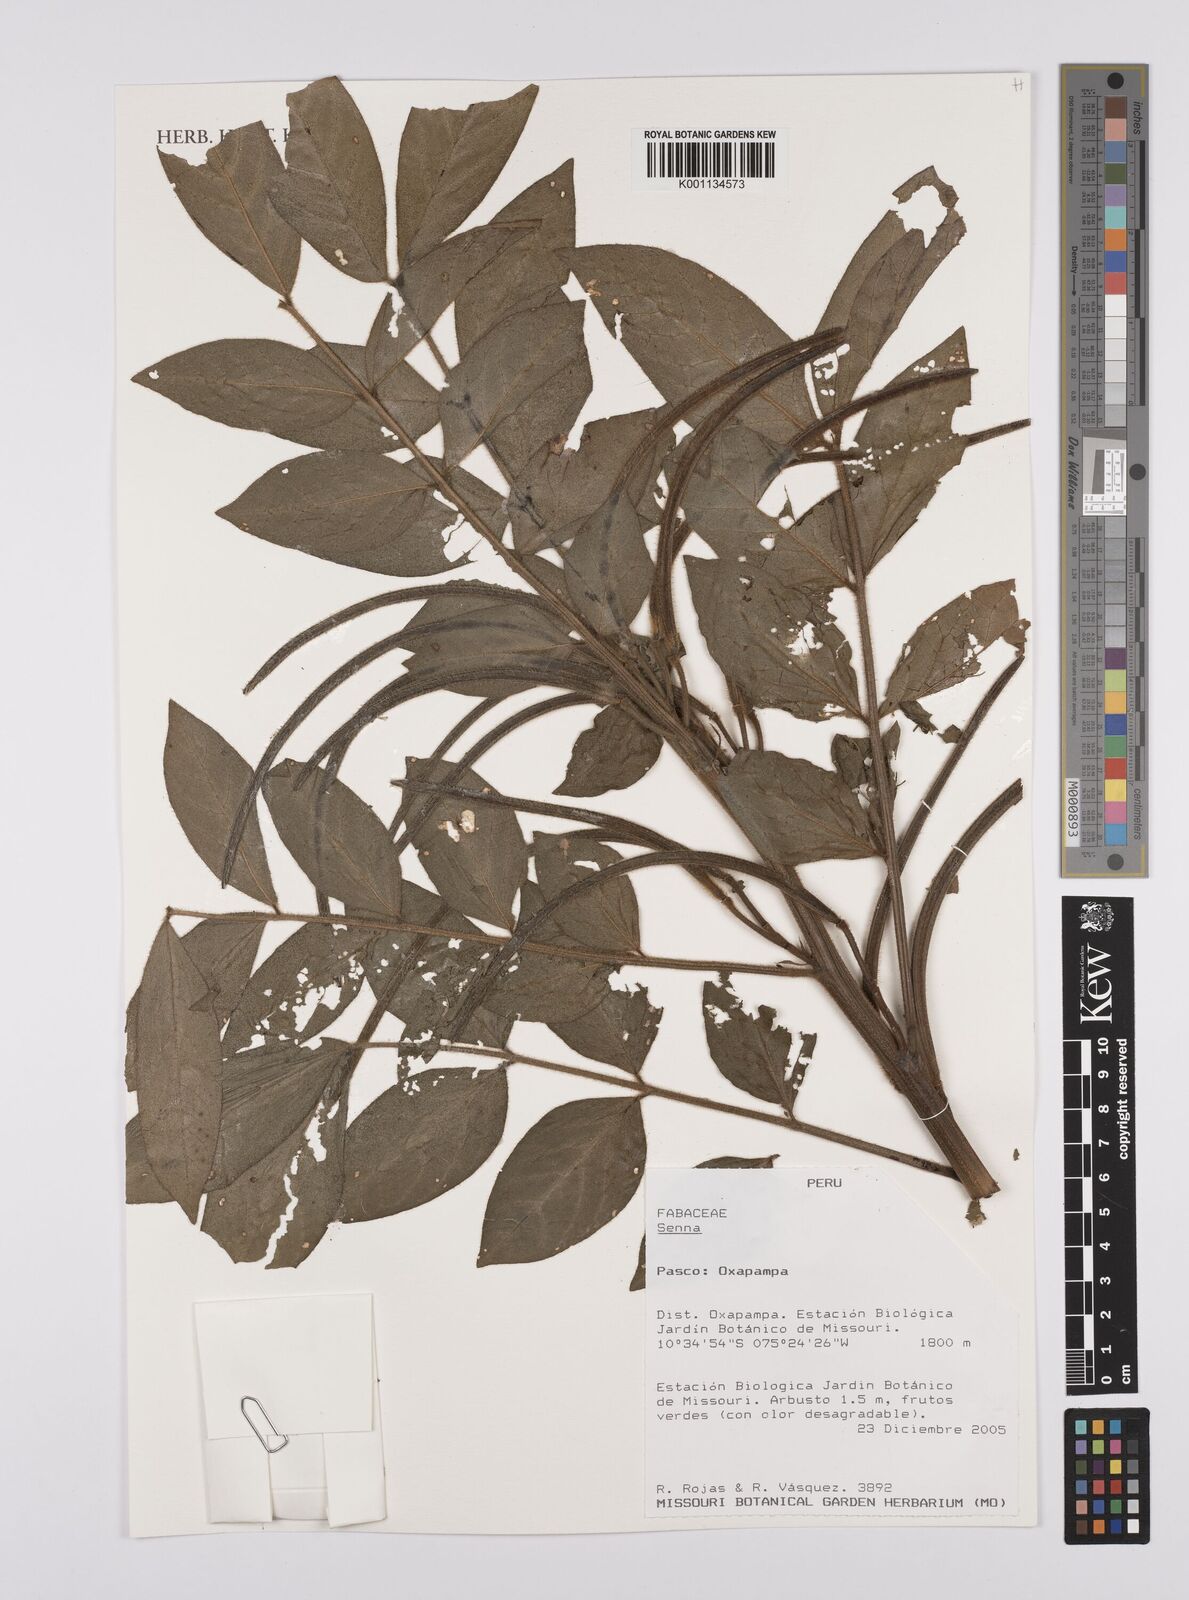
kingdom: Plantae
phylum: Tracheophyta
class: Magnoliopsida
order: Fabales
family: Fabaceae
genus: Senna
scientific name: Senna
